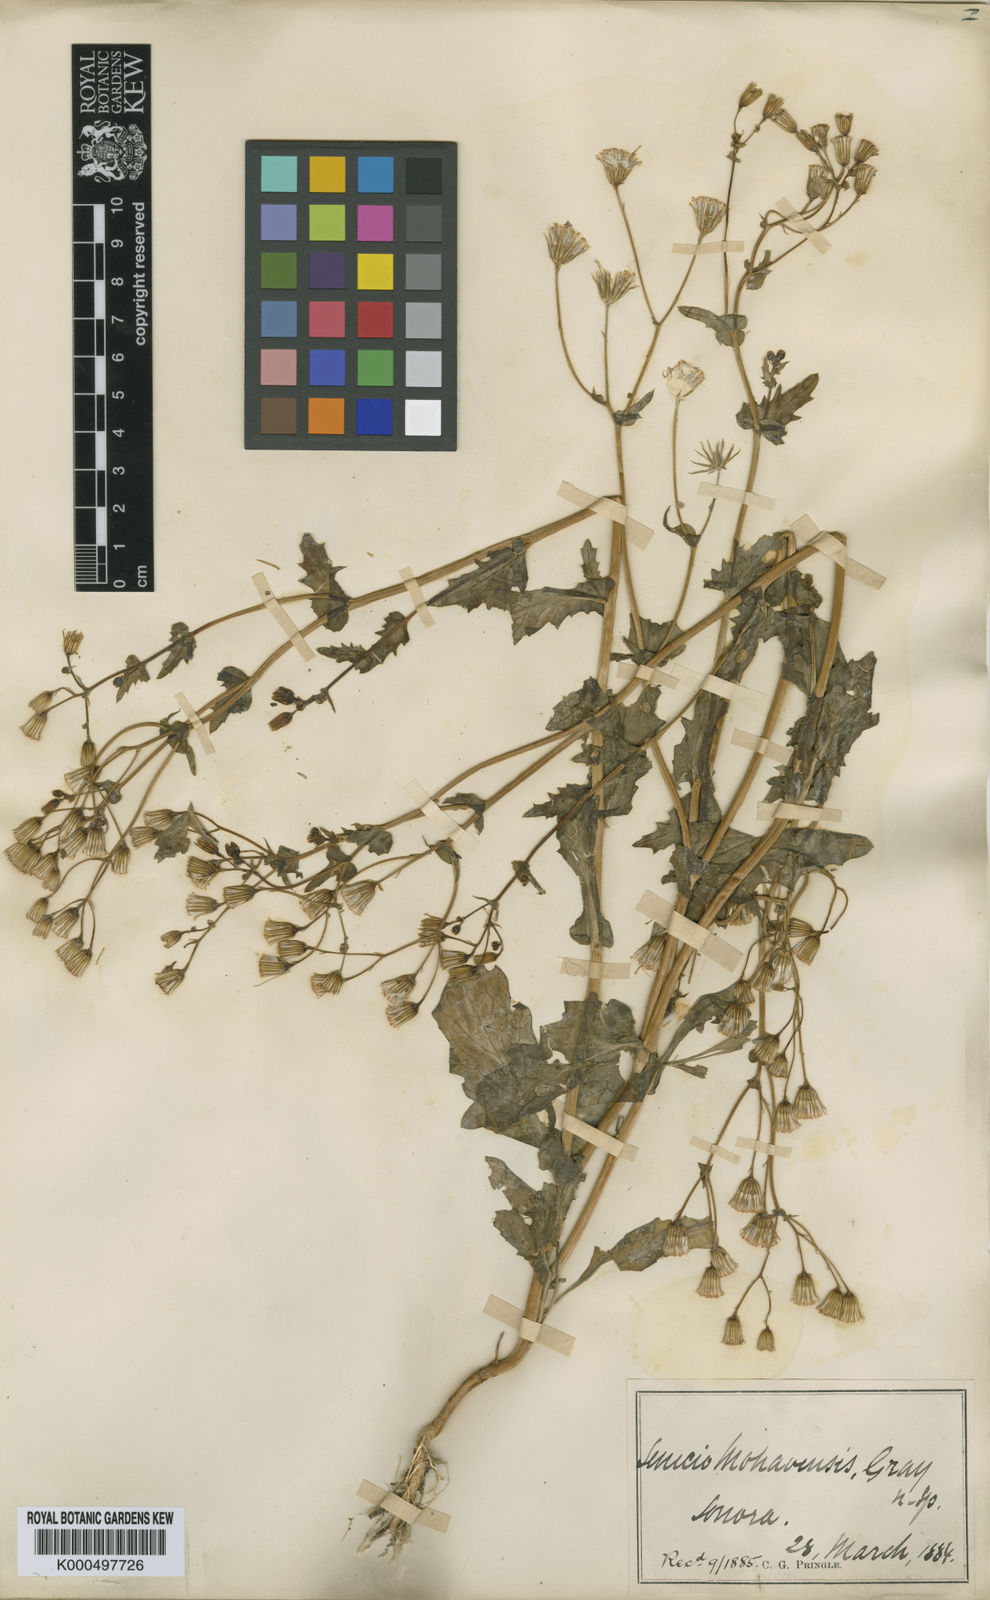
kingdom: Plantae
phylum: Tracheophyta
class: Magnoliopsida
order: Asterales
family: Asteraceae
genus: Senecio
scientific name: Senecio mohavensis
